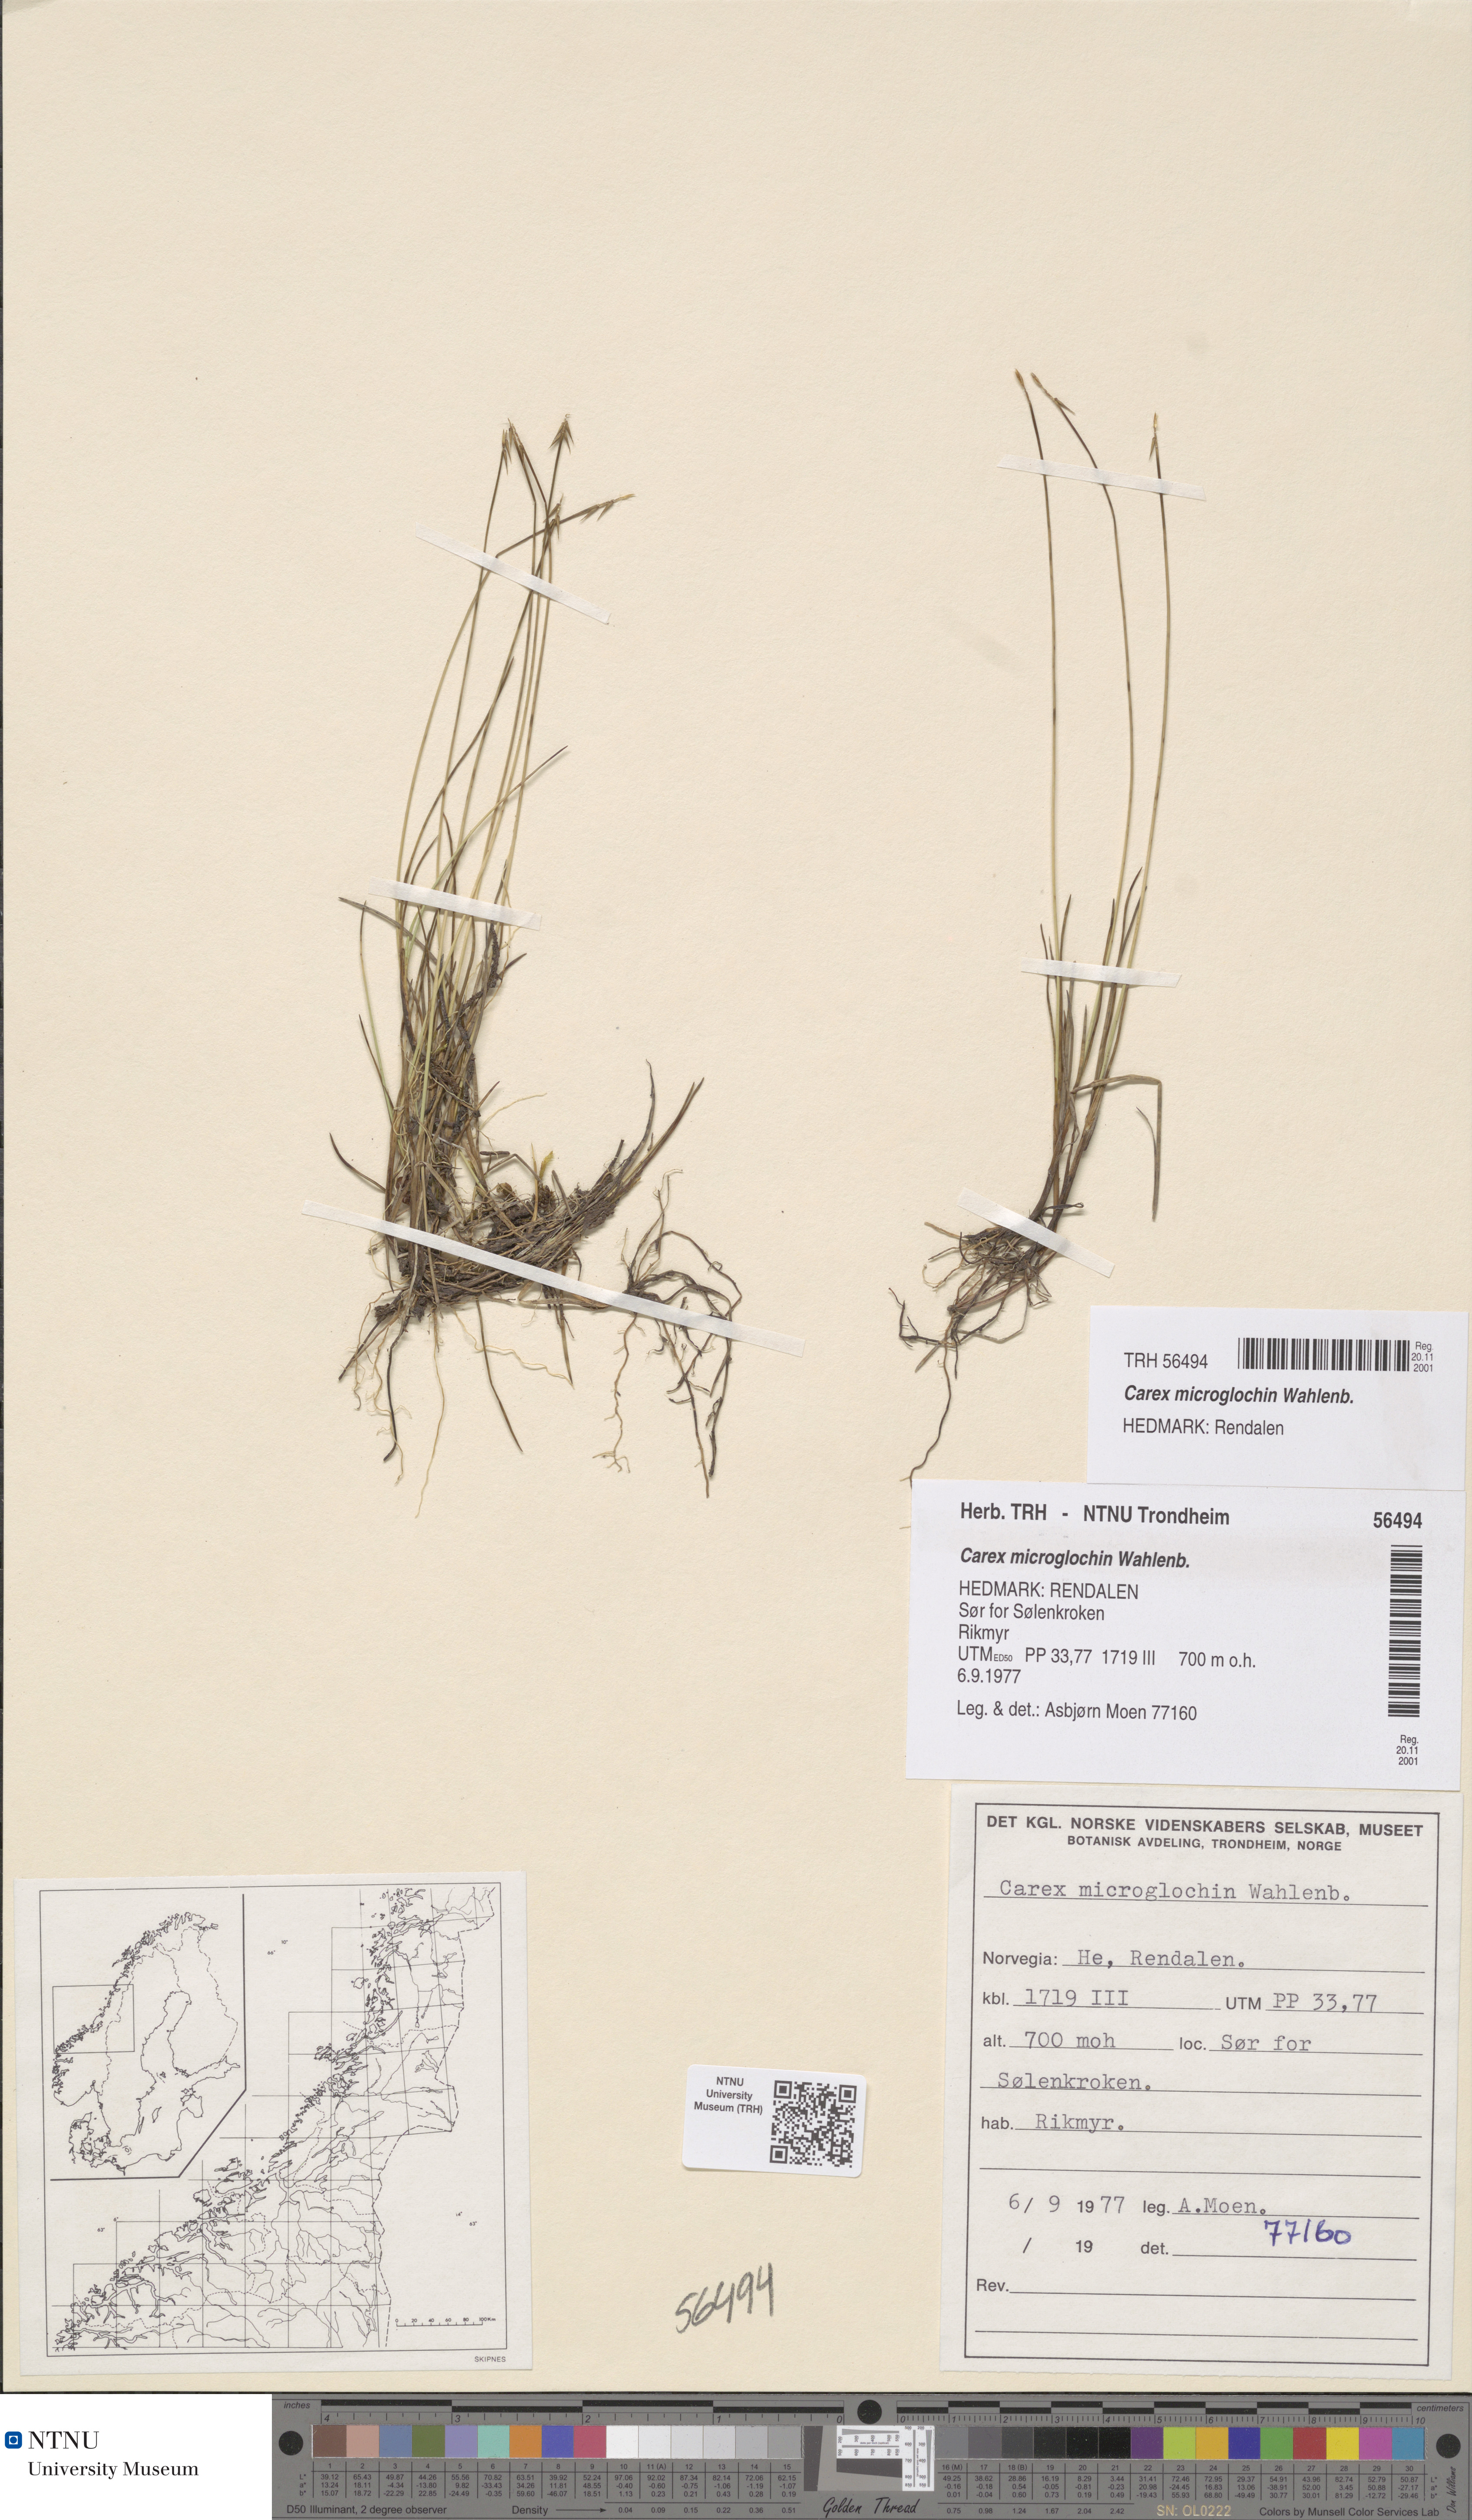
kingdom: Plantae
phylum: Tracheophyta
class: Liliopsida
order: Poales
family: Cyperaceae
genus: Carex
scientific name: Carex microglochin
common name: Bristle sedge
